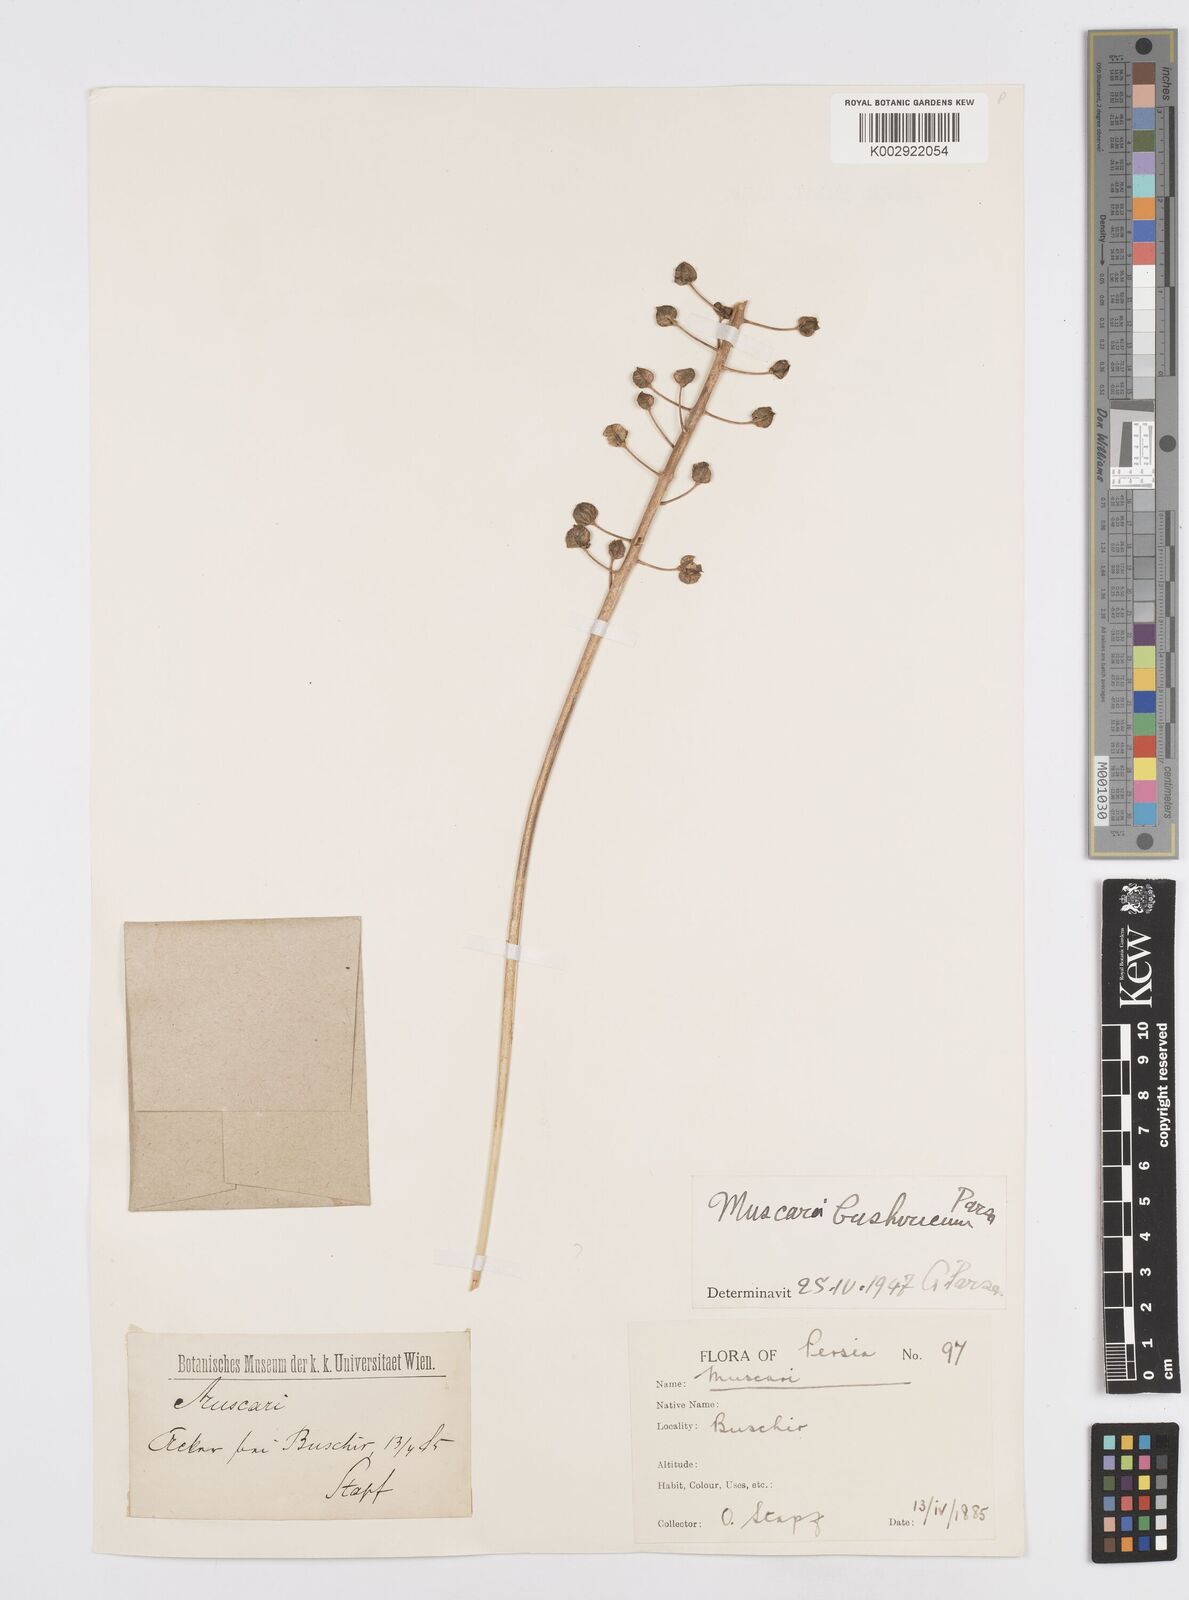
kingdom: Animalia
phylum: Mollusca
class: Cephalopoda
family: Neocomitidae
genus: Leopoldia
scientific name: Leopoldia
